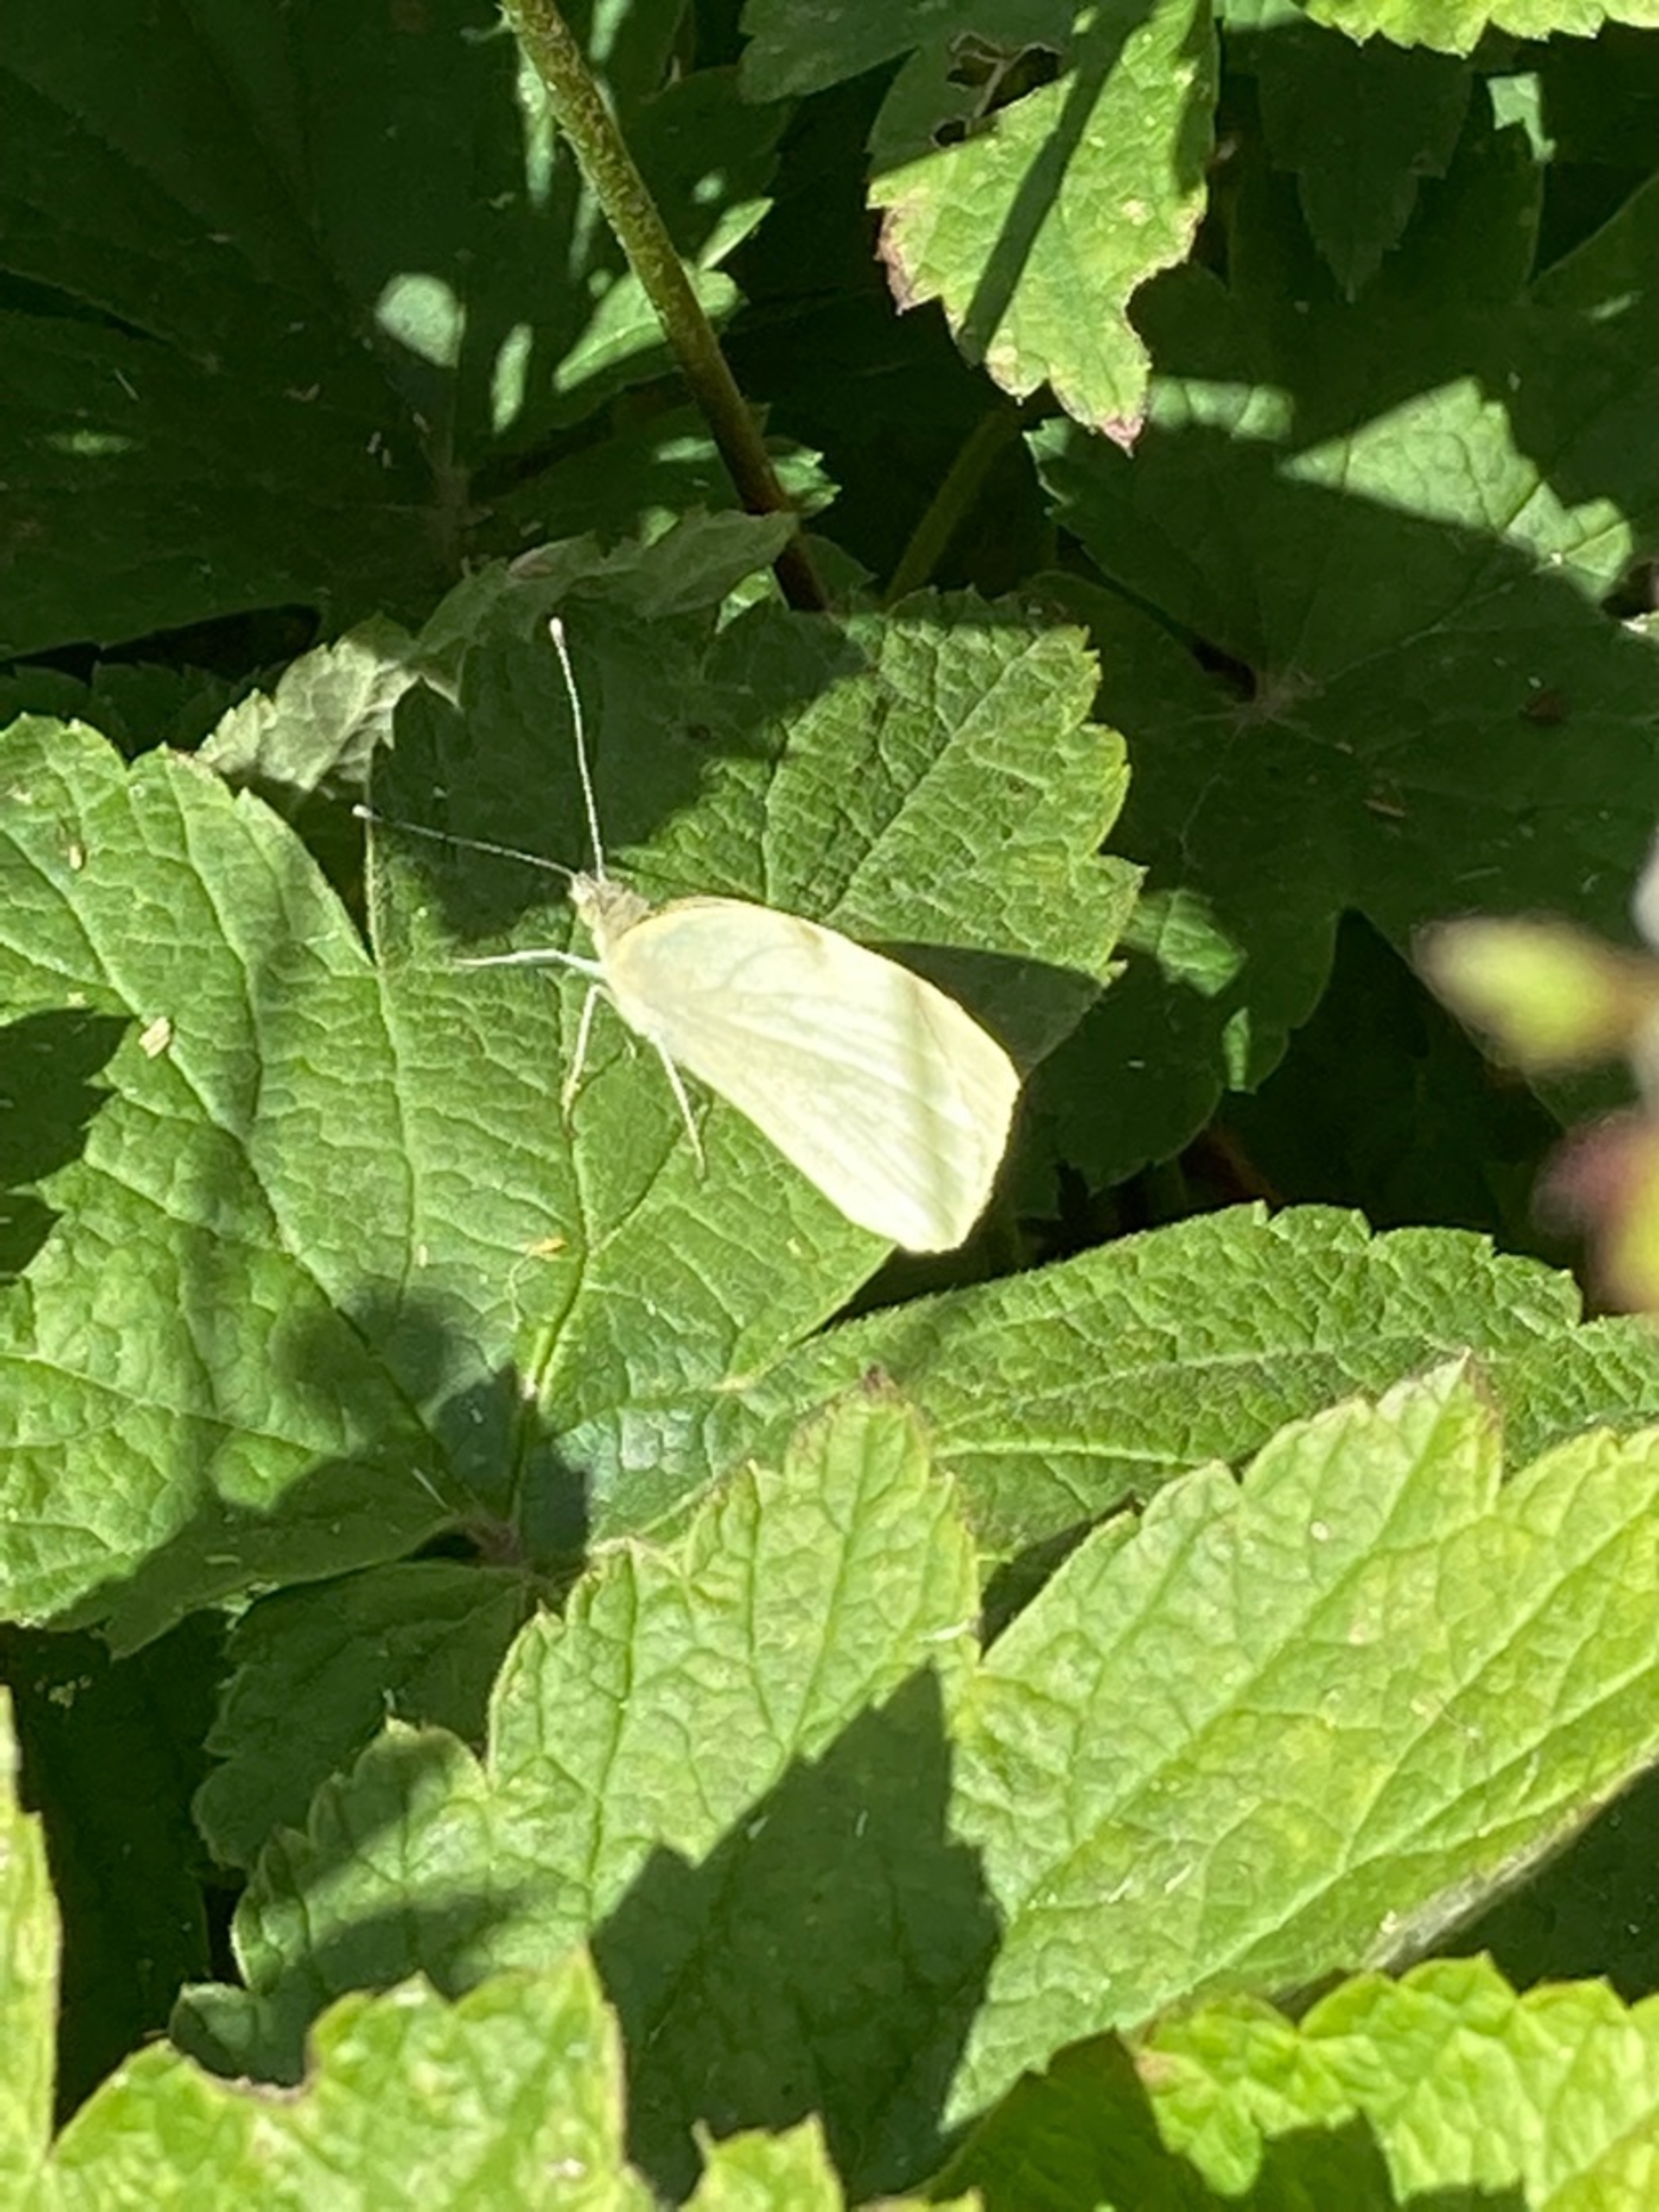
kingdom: Animalia
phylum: Arthropoda
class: Insecta
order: Lepidoptera
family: Pieridae
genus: Pieris
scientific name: Pieris rapae
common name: Lille kålsommerfugl
